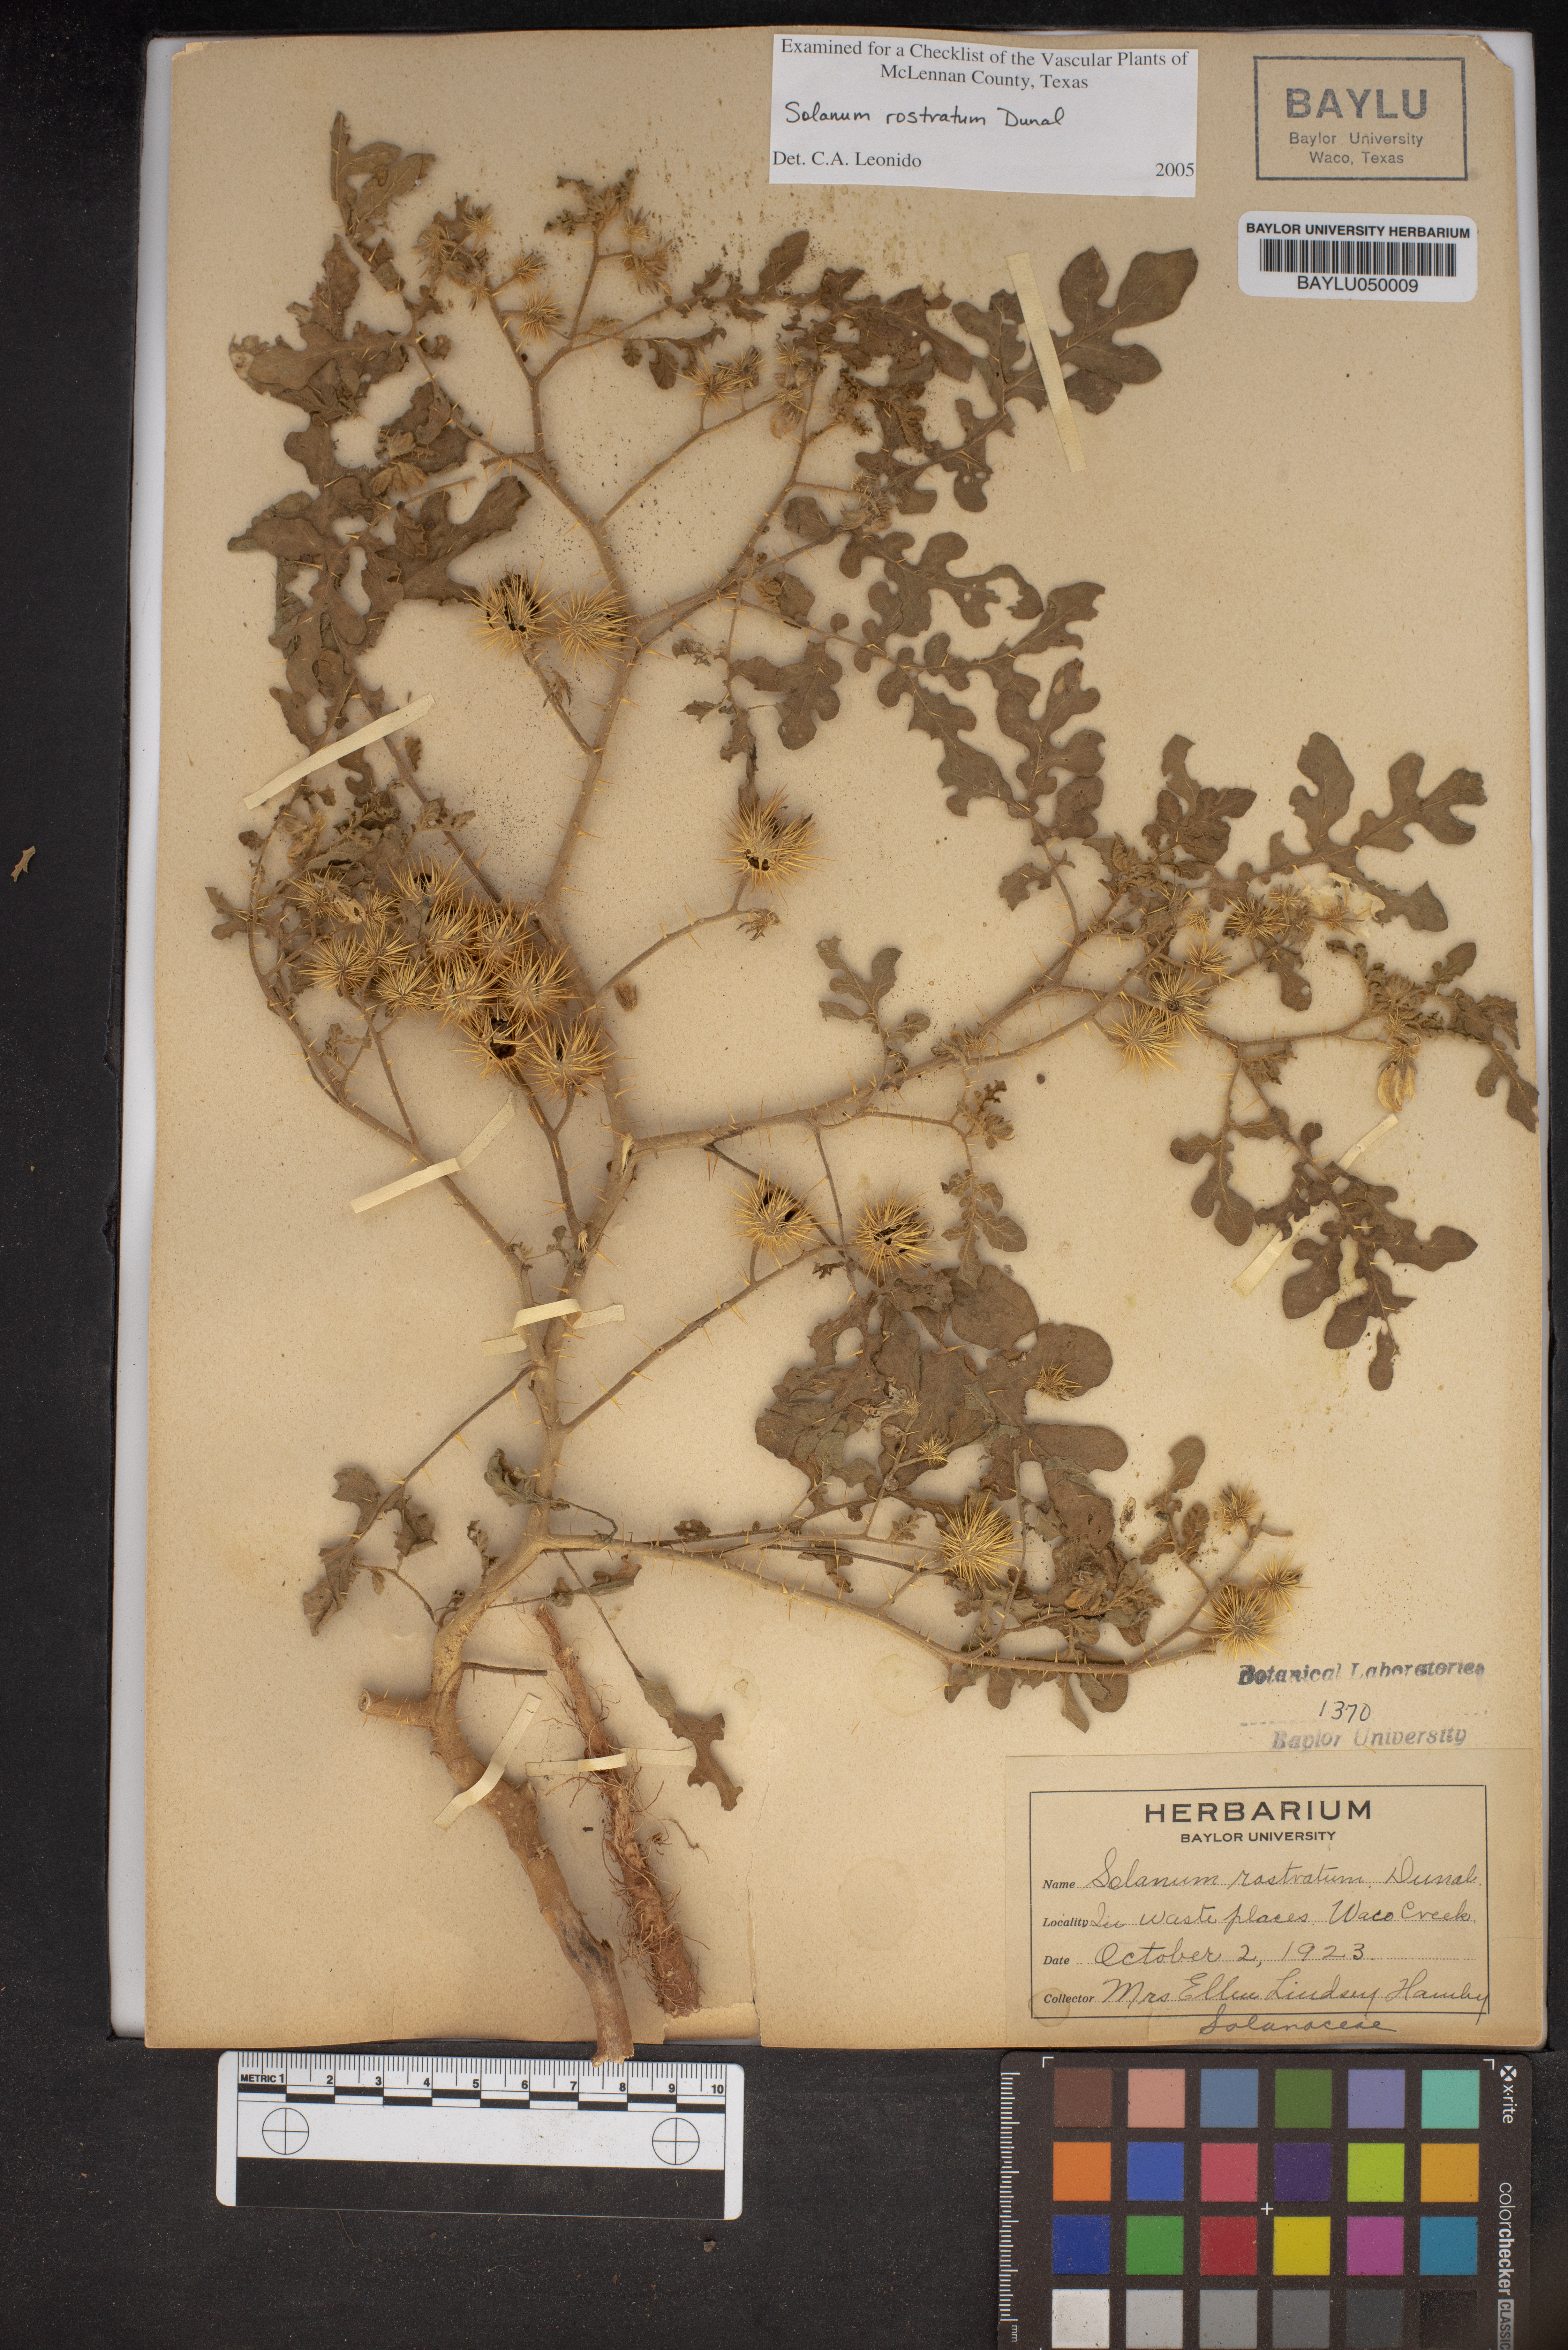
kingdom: Plantae
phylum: Tracheophyta
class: Magnoliopsida
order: Solanales
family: Solanaceae
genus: Solanum
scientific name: Solanum angustifolium
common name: Buffalobur nightshade
